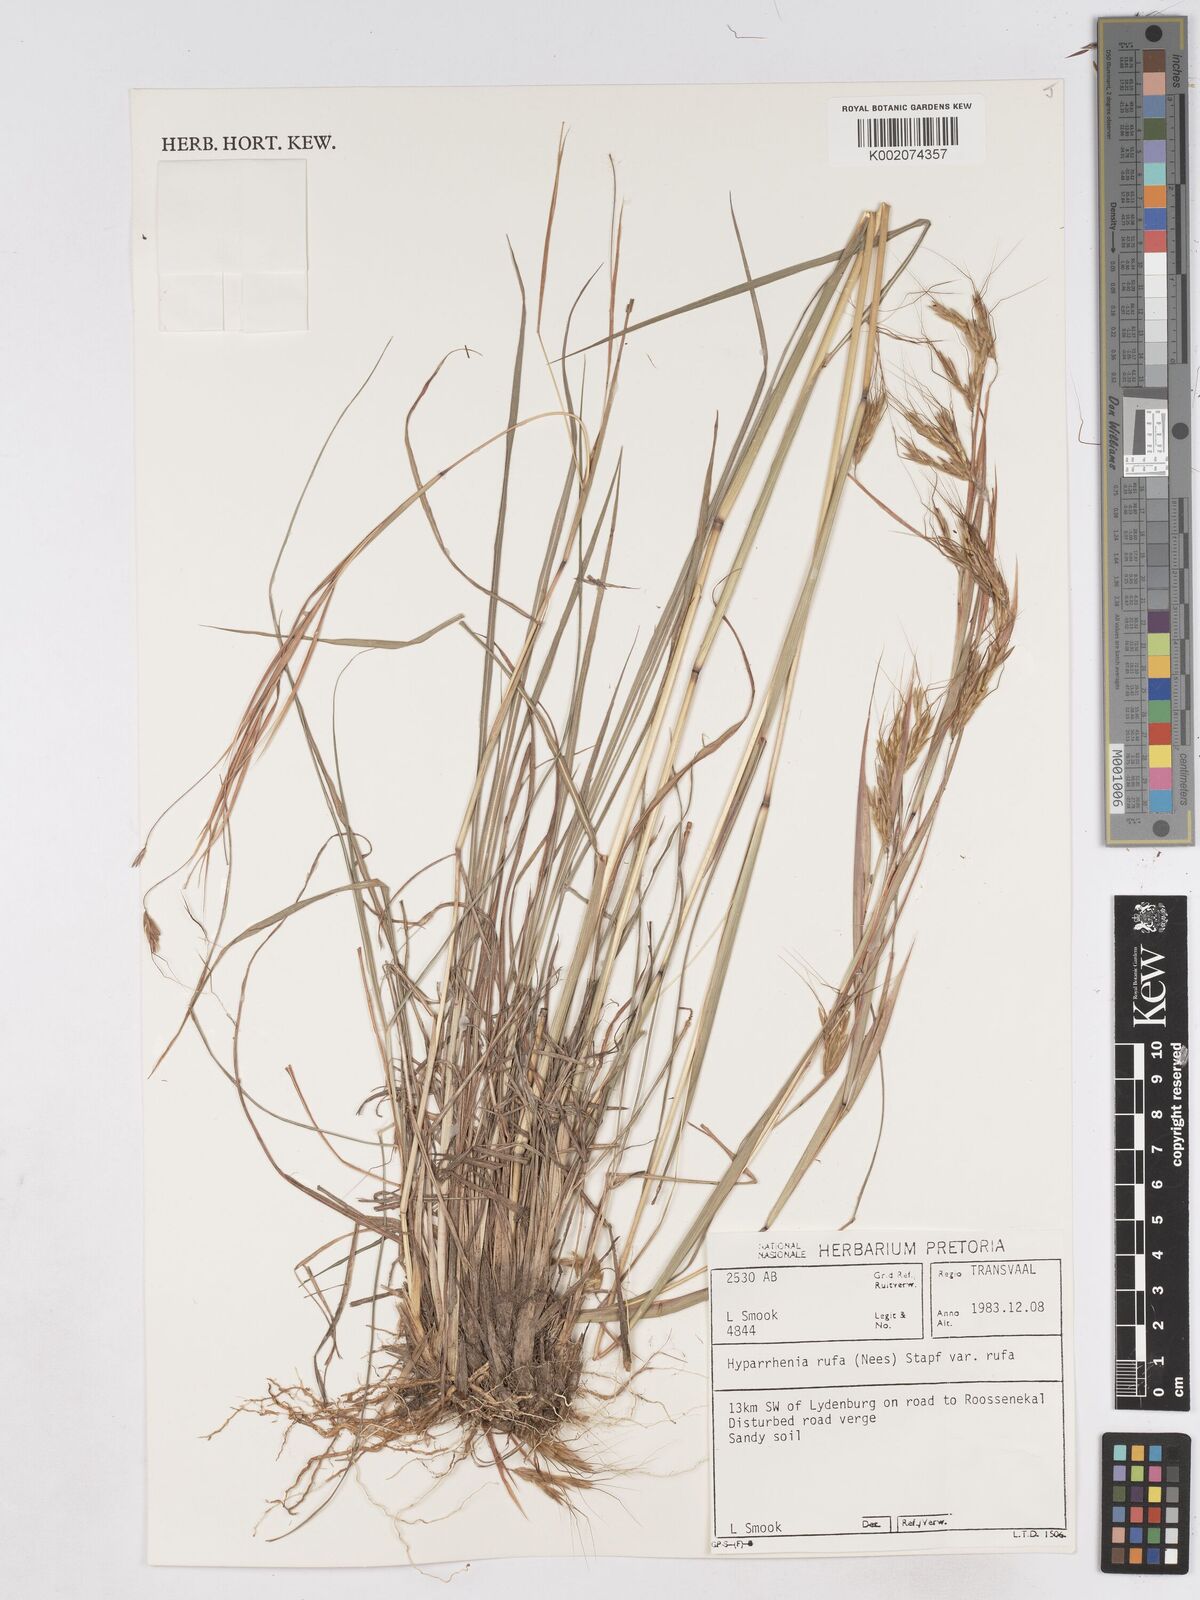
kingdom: Plantae
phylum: Tracheophyta
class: Liliopsida
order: Poales
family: Poaceae
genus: Hyparrhenia
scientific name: Hyparrhenia rufa
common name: Jaraguagrass
